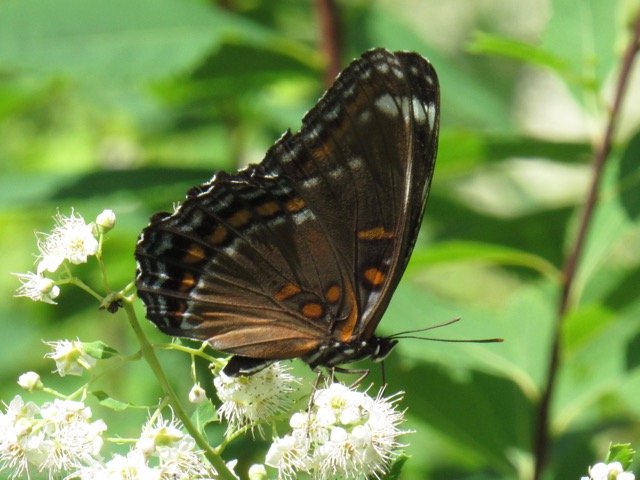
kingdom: Animalia
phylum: Arthropoda
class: Insecta
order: Lepidoptera
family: Nymphalidae
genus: Limenitis
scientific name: Limenitis
